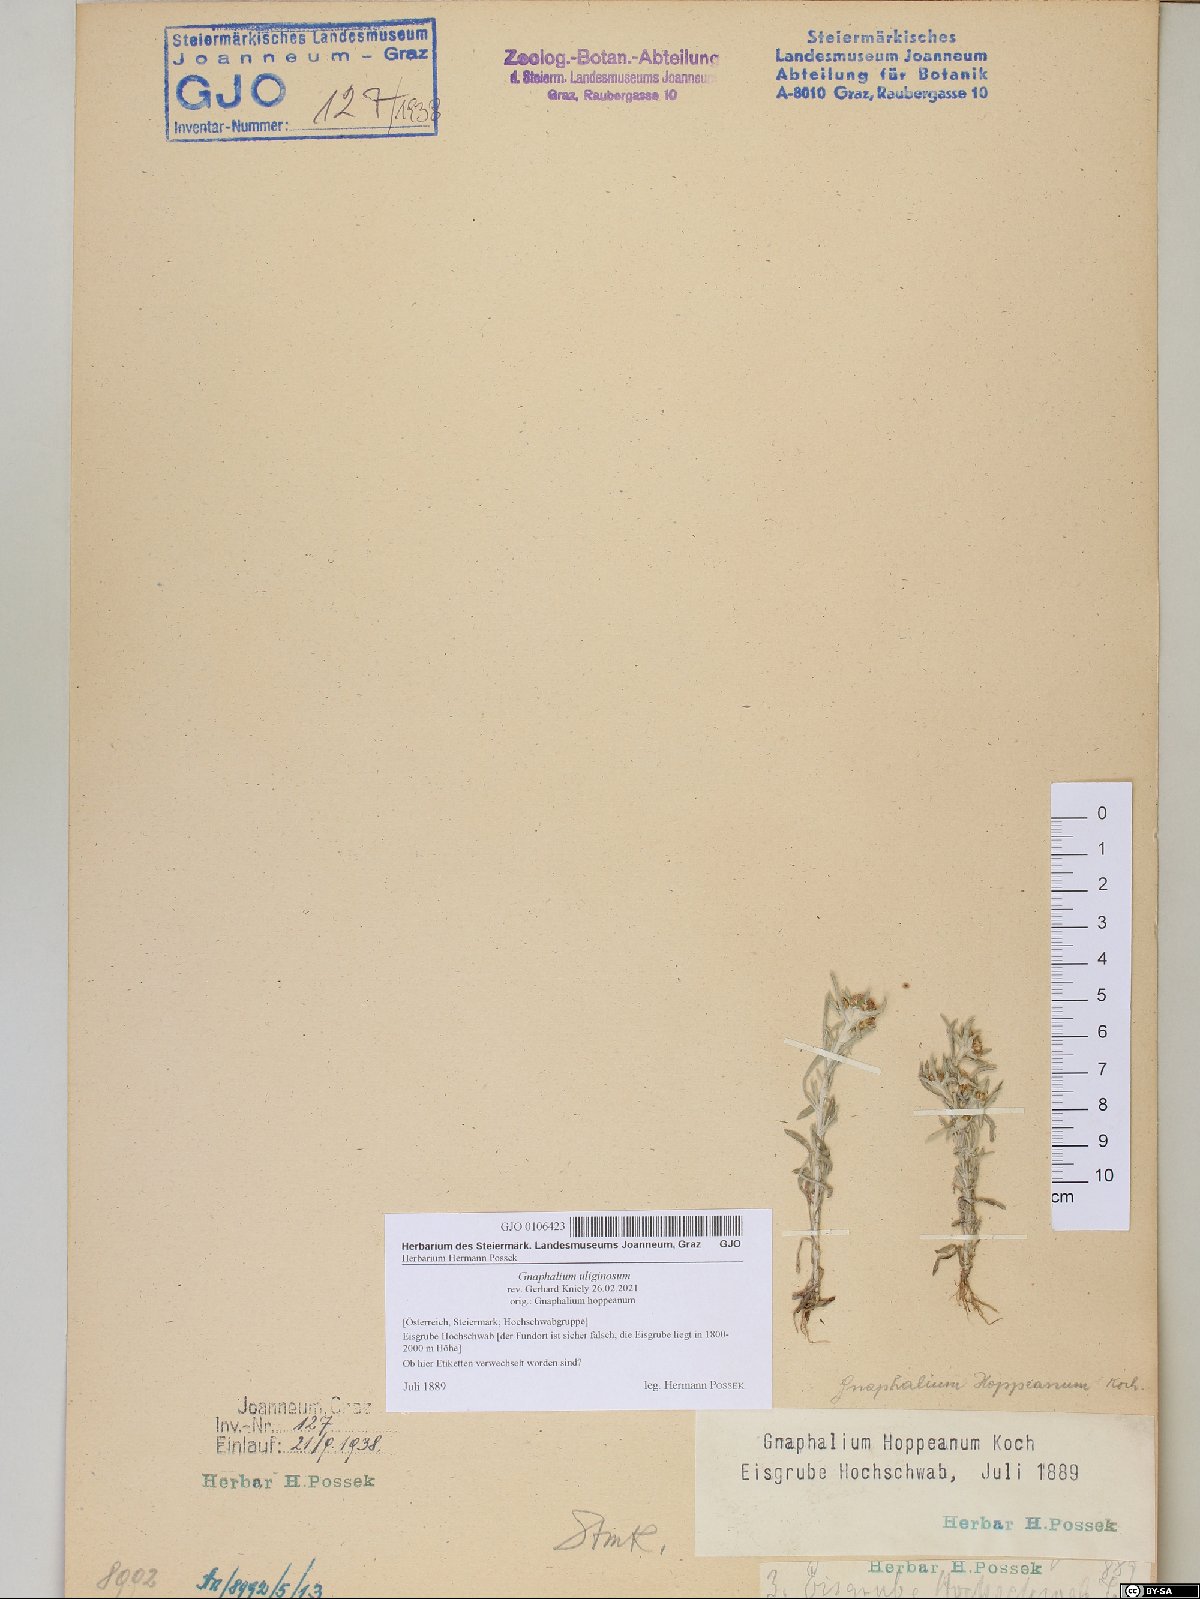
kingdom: Plantae
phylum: Tracheophyta
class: Magnoliopsida
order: Asterales
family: Asteraceae
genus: Gnaphalium
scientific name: Gnaphalium uliginosum
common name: Marsh cudweed
